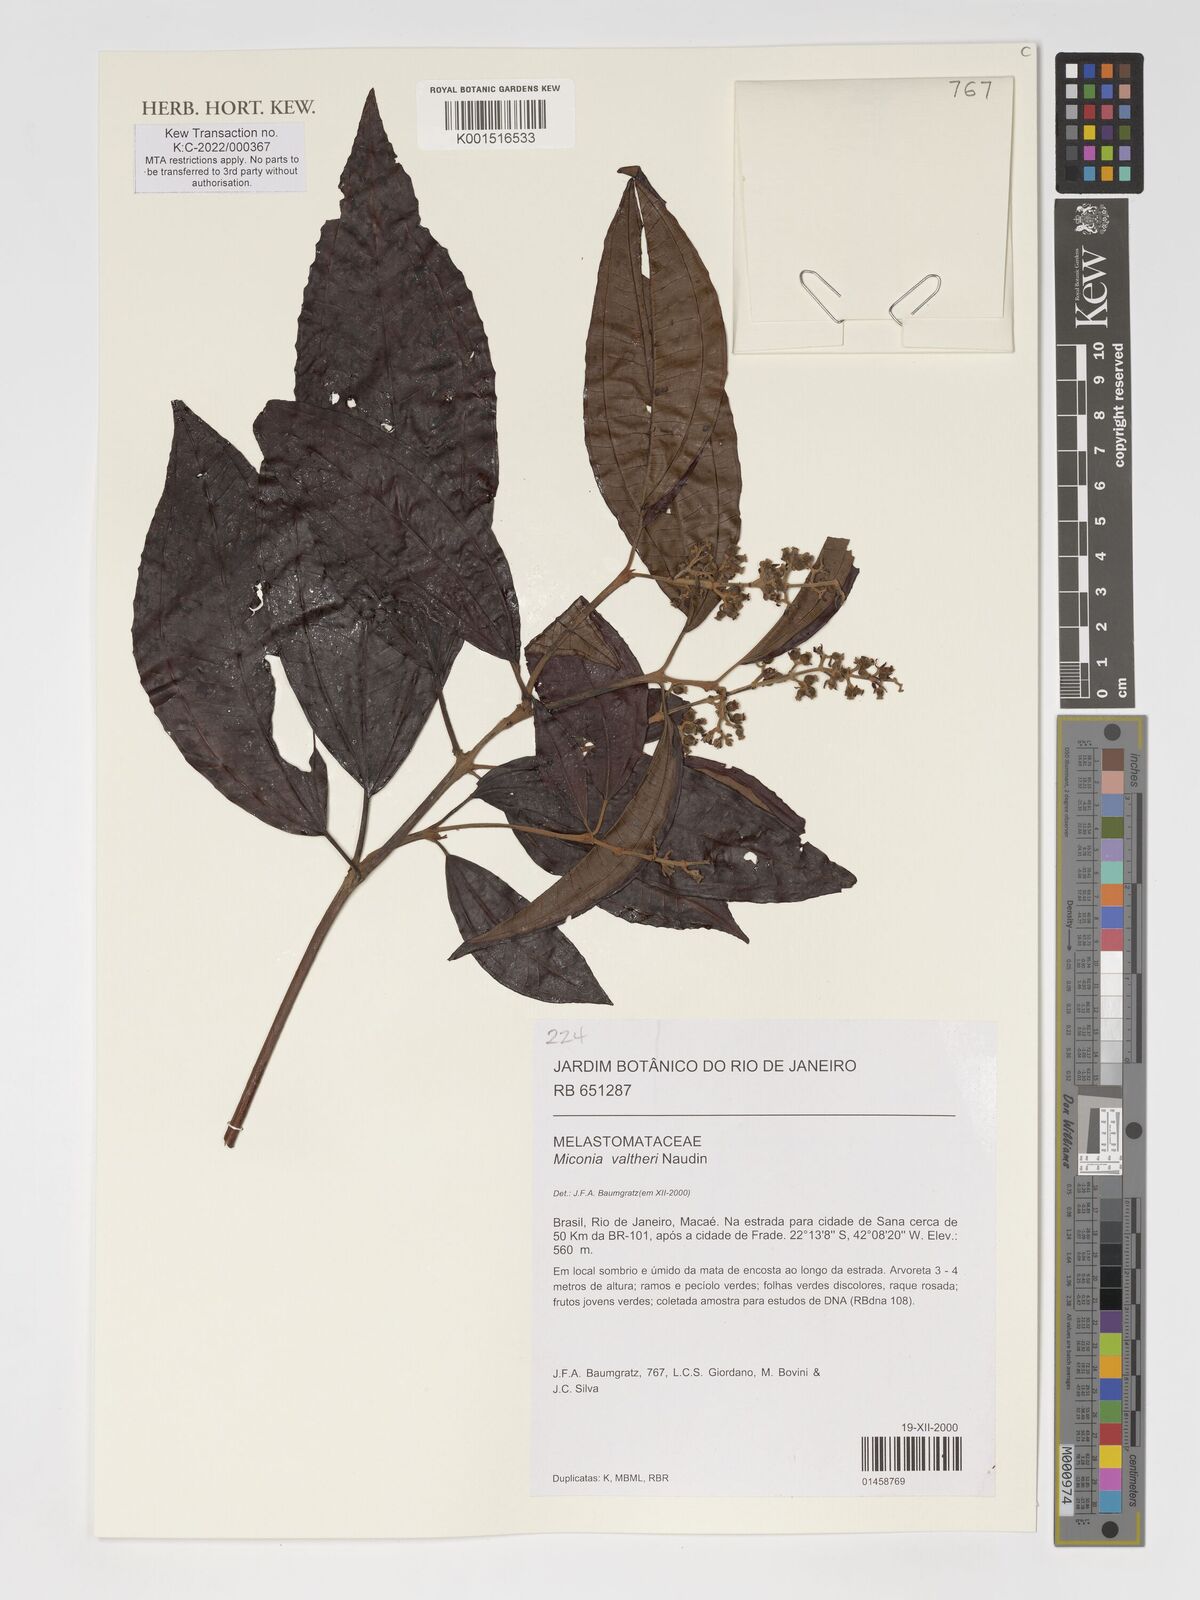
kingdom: Plantae
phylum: Tracheophyta
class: Magnoliopsida
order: Myrtales
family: Melastomataceae
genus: Miconia
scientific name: Miconia valtheri
